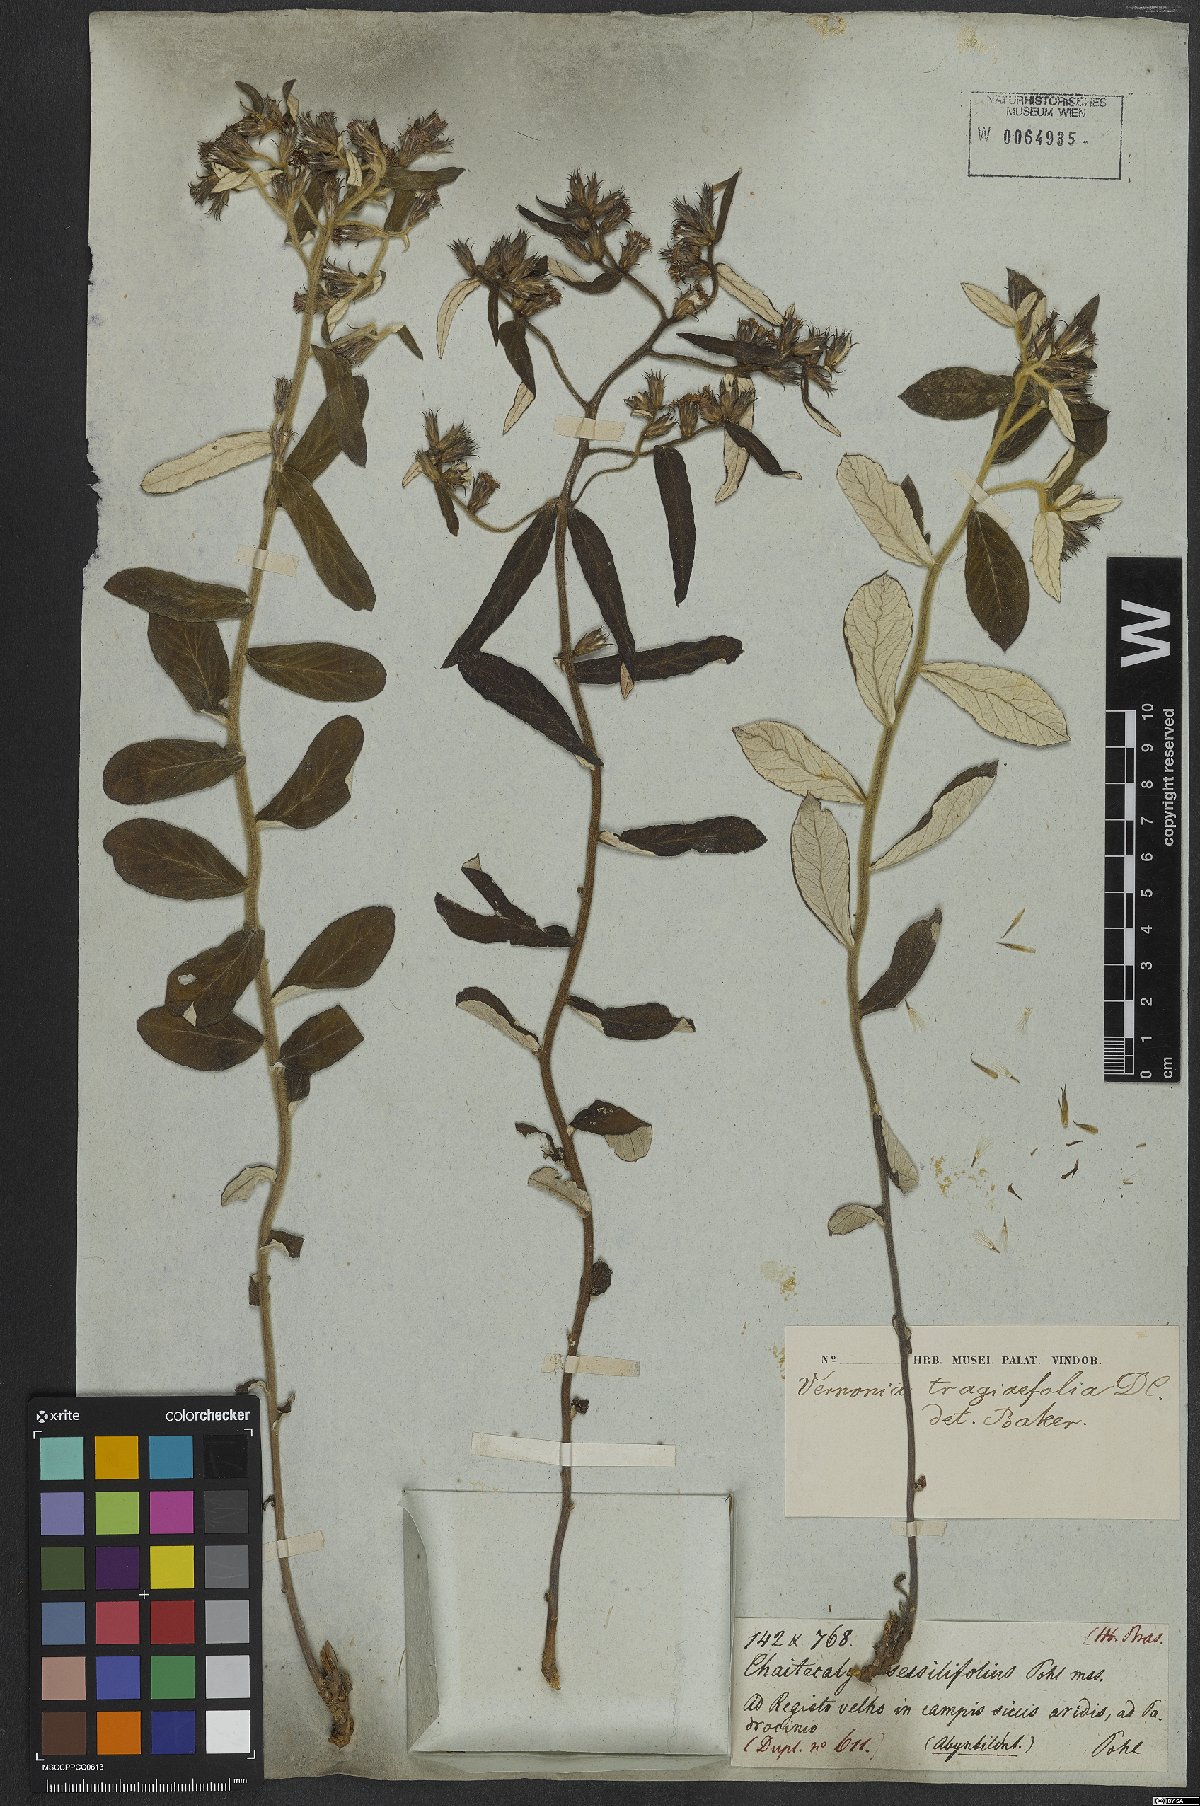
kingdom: Plantae
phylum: Tracheophyta
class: Magnoliopsida
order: Asterales
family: Asteraceae
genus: Stenocephalum
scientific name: Stenocephalum tragiifolium
